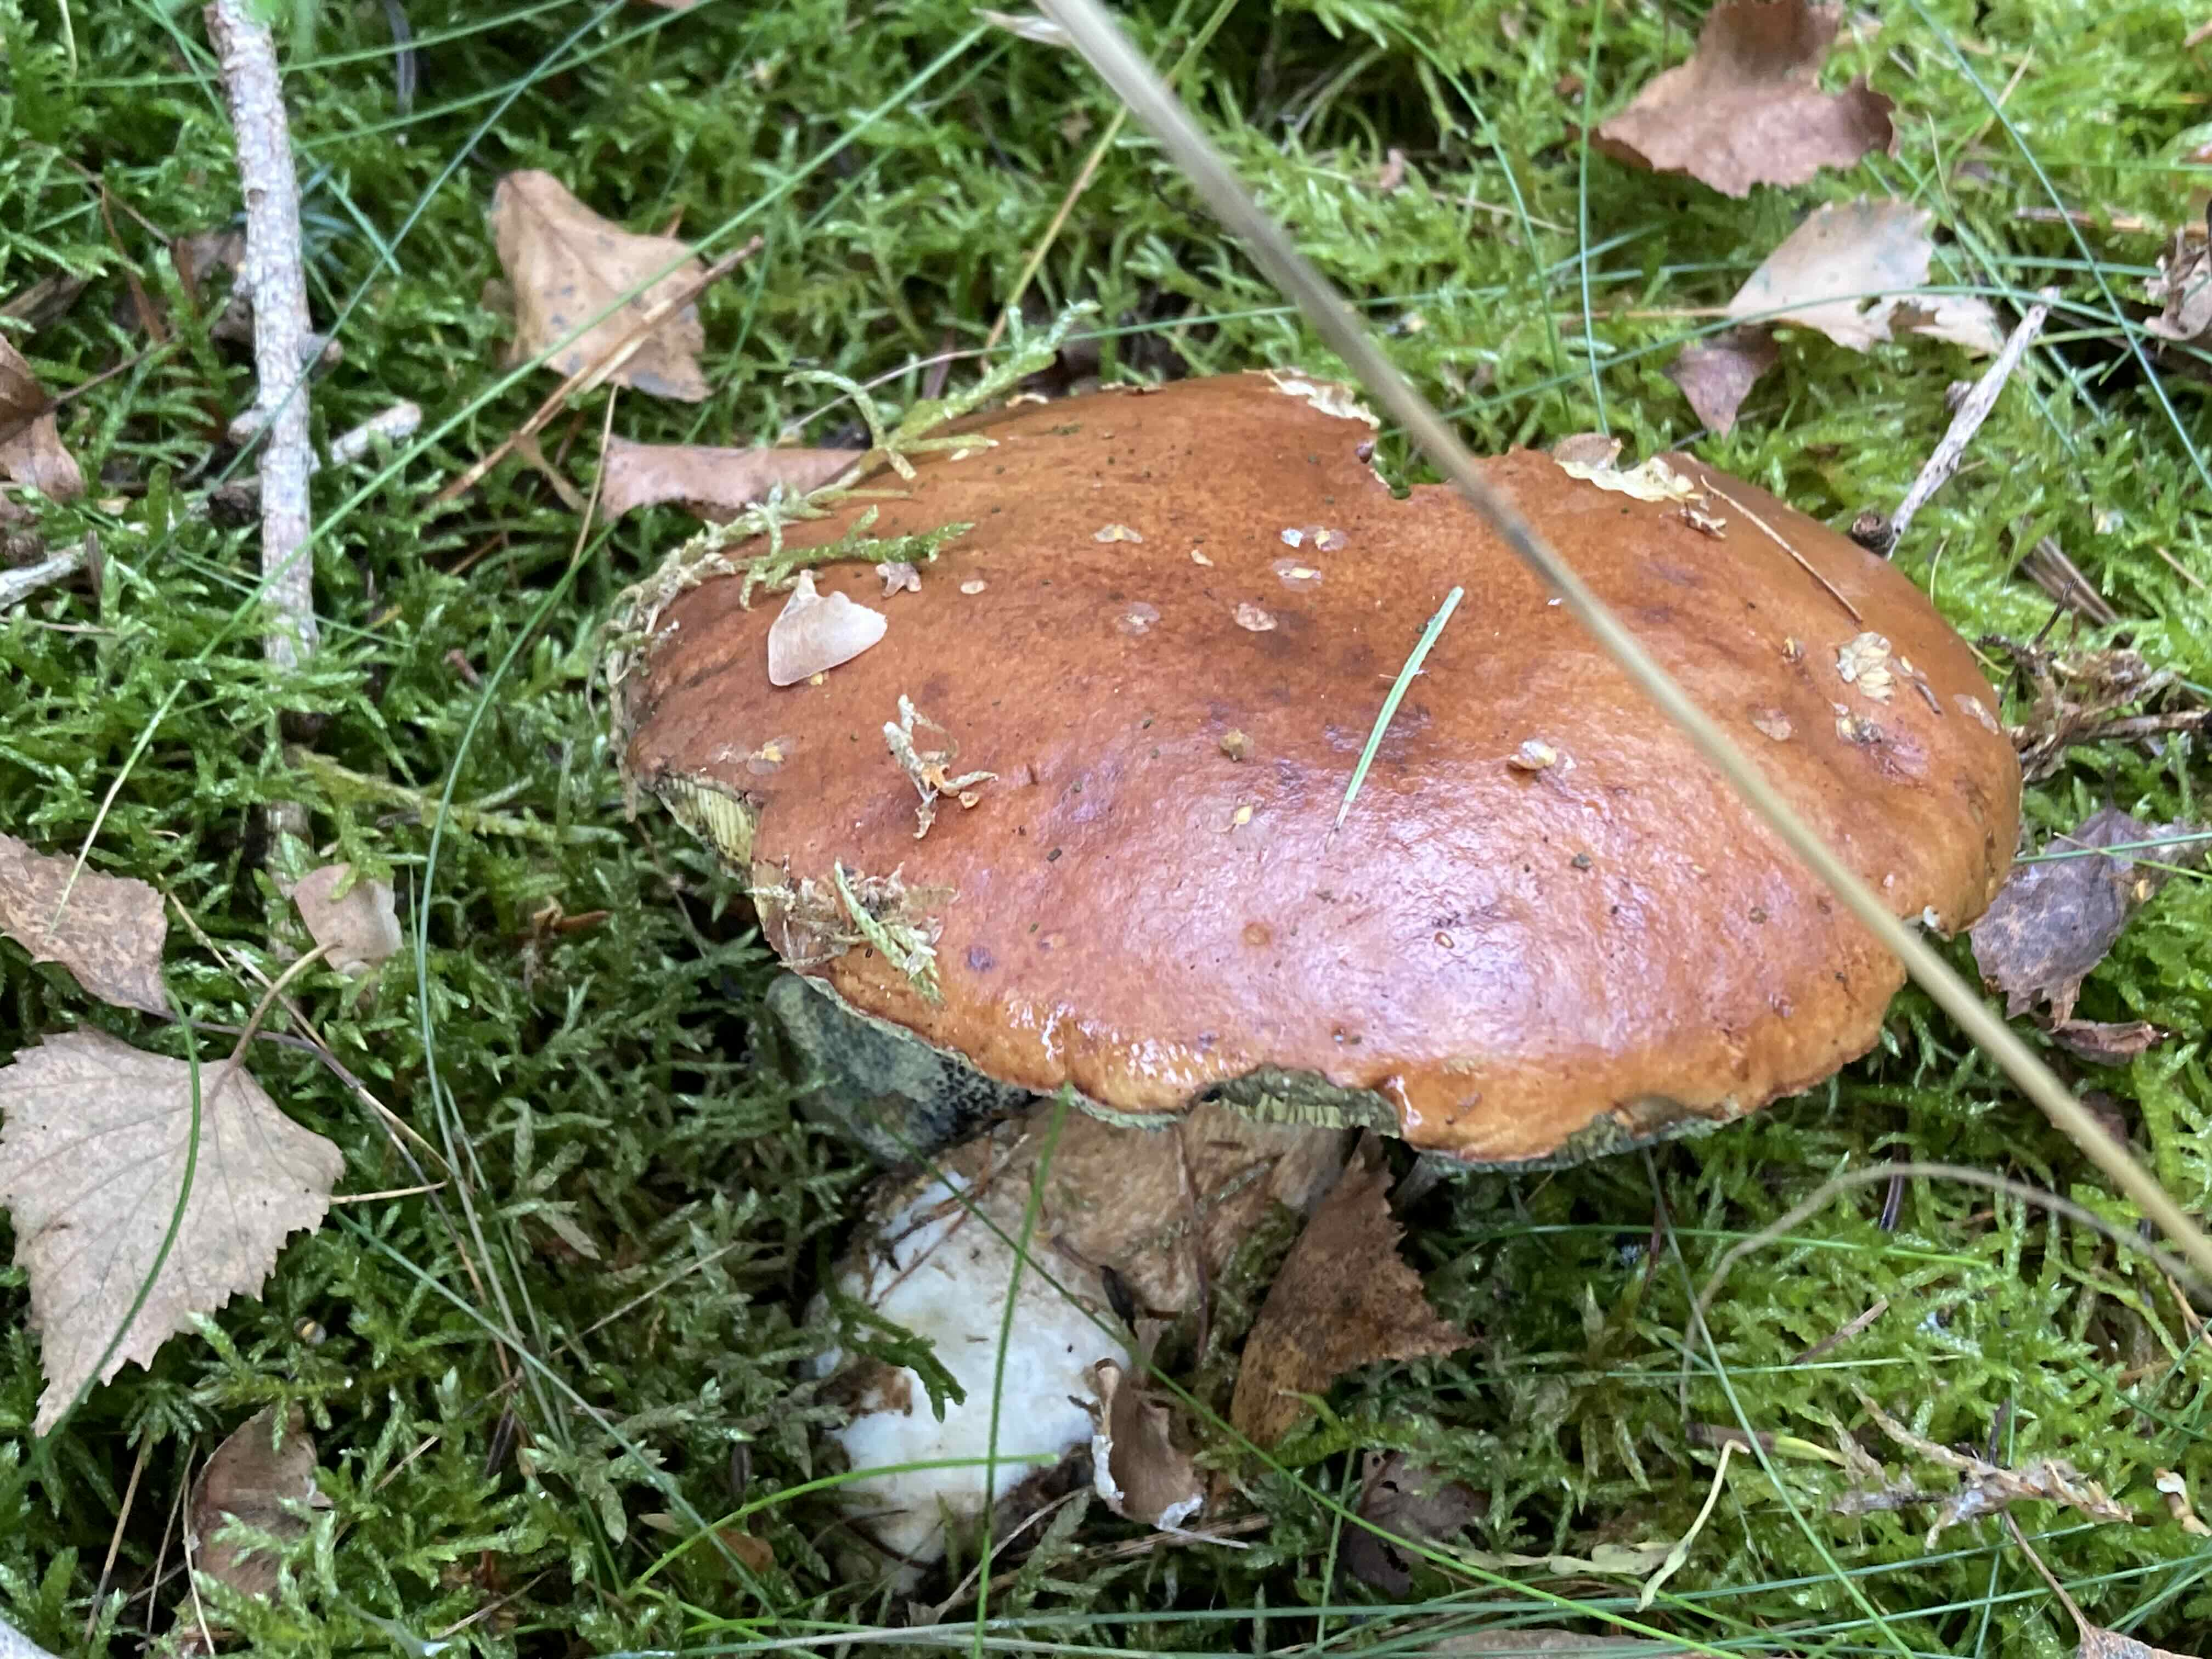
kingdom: Fungi
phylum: Basidiomycota
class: Agaricomycetes
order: Boletales
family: Boletaceae
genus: Imleria
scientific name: Imleria badia
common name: brunstokket rørhat
